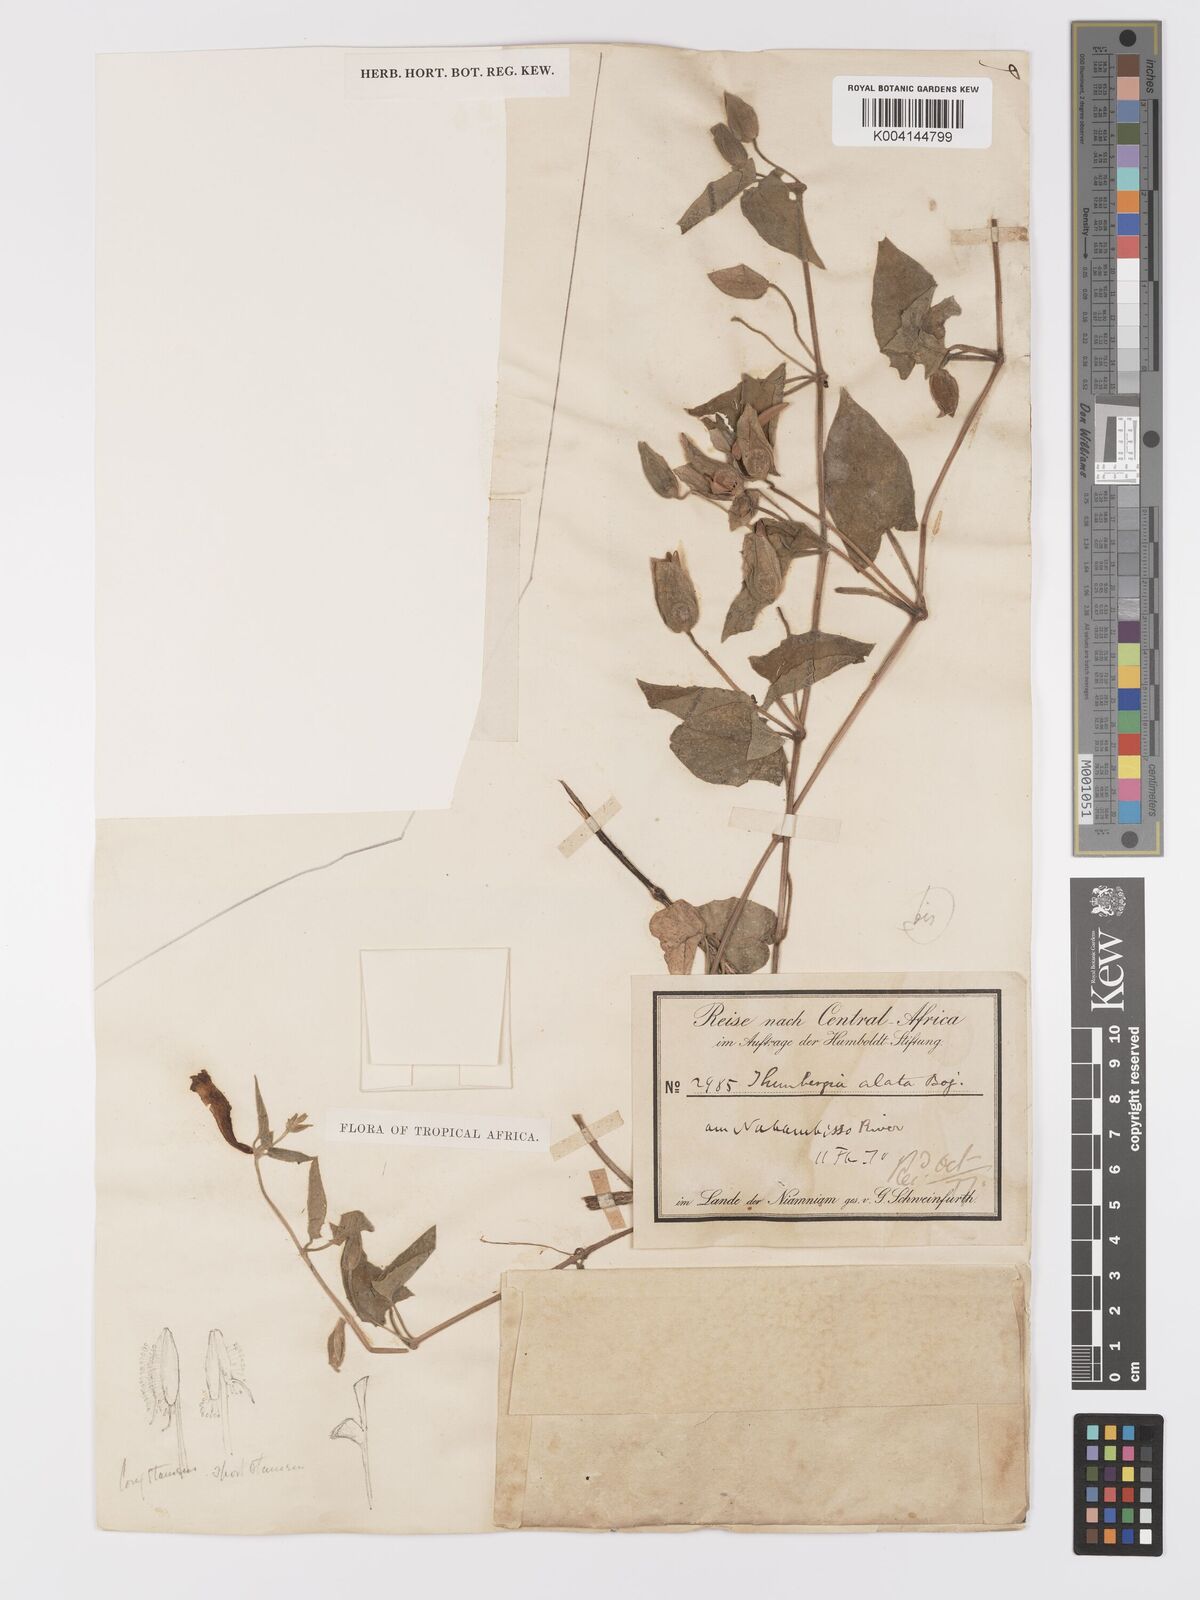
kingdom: Plantae
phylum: Tracheophyta
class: Magnoliopsida
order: Lamiales
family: Acanthaceae
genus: Thunbergia
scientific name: Thunbergia alata
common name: Blackeyed susan vine
